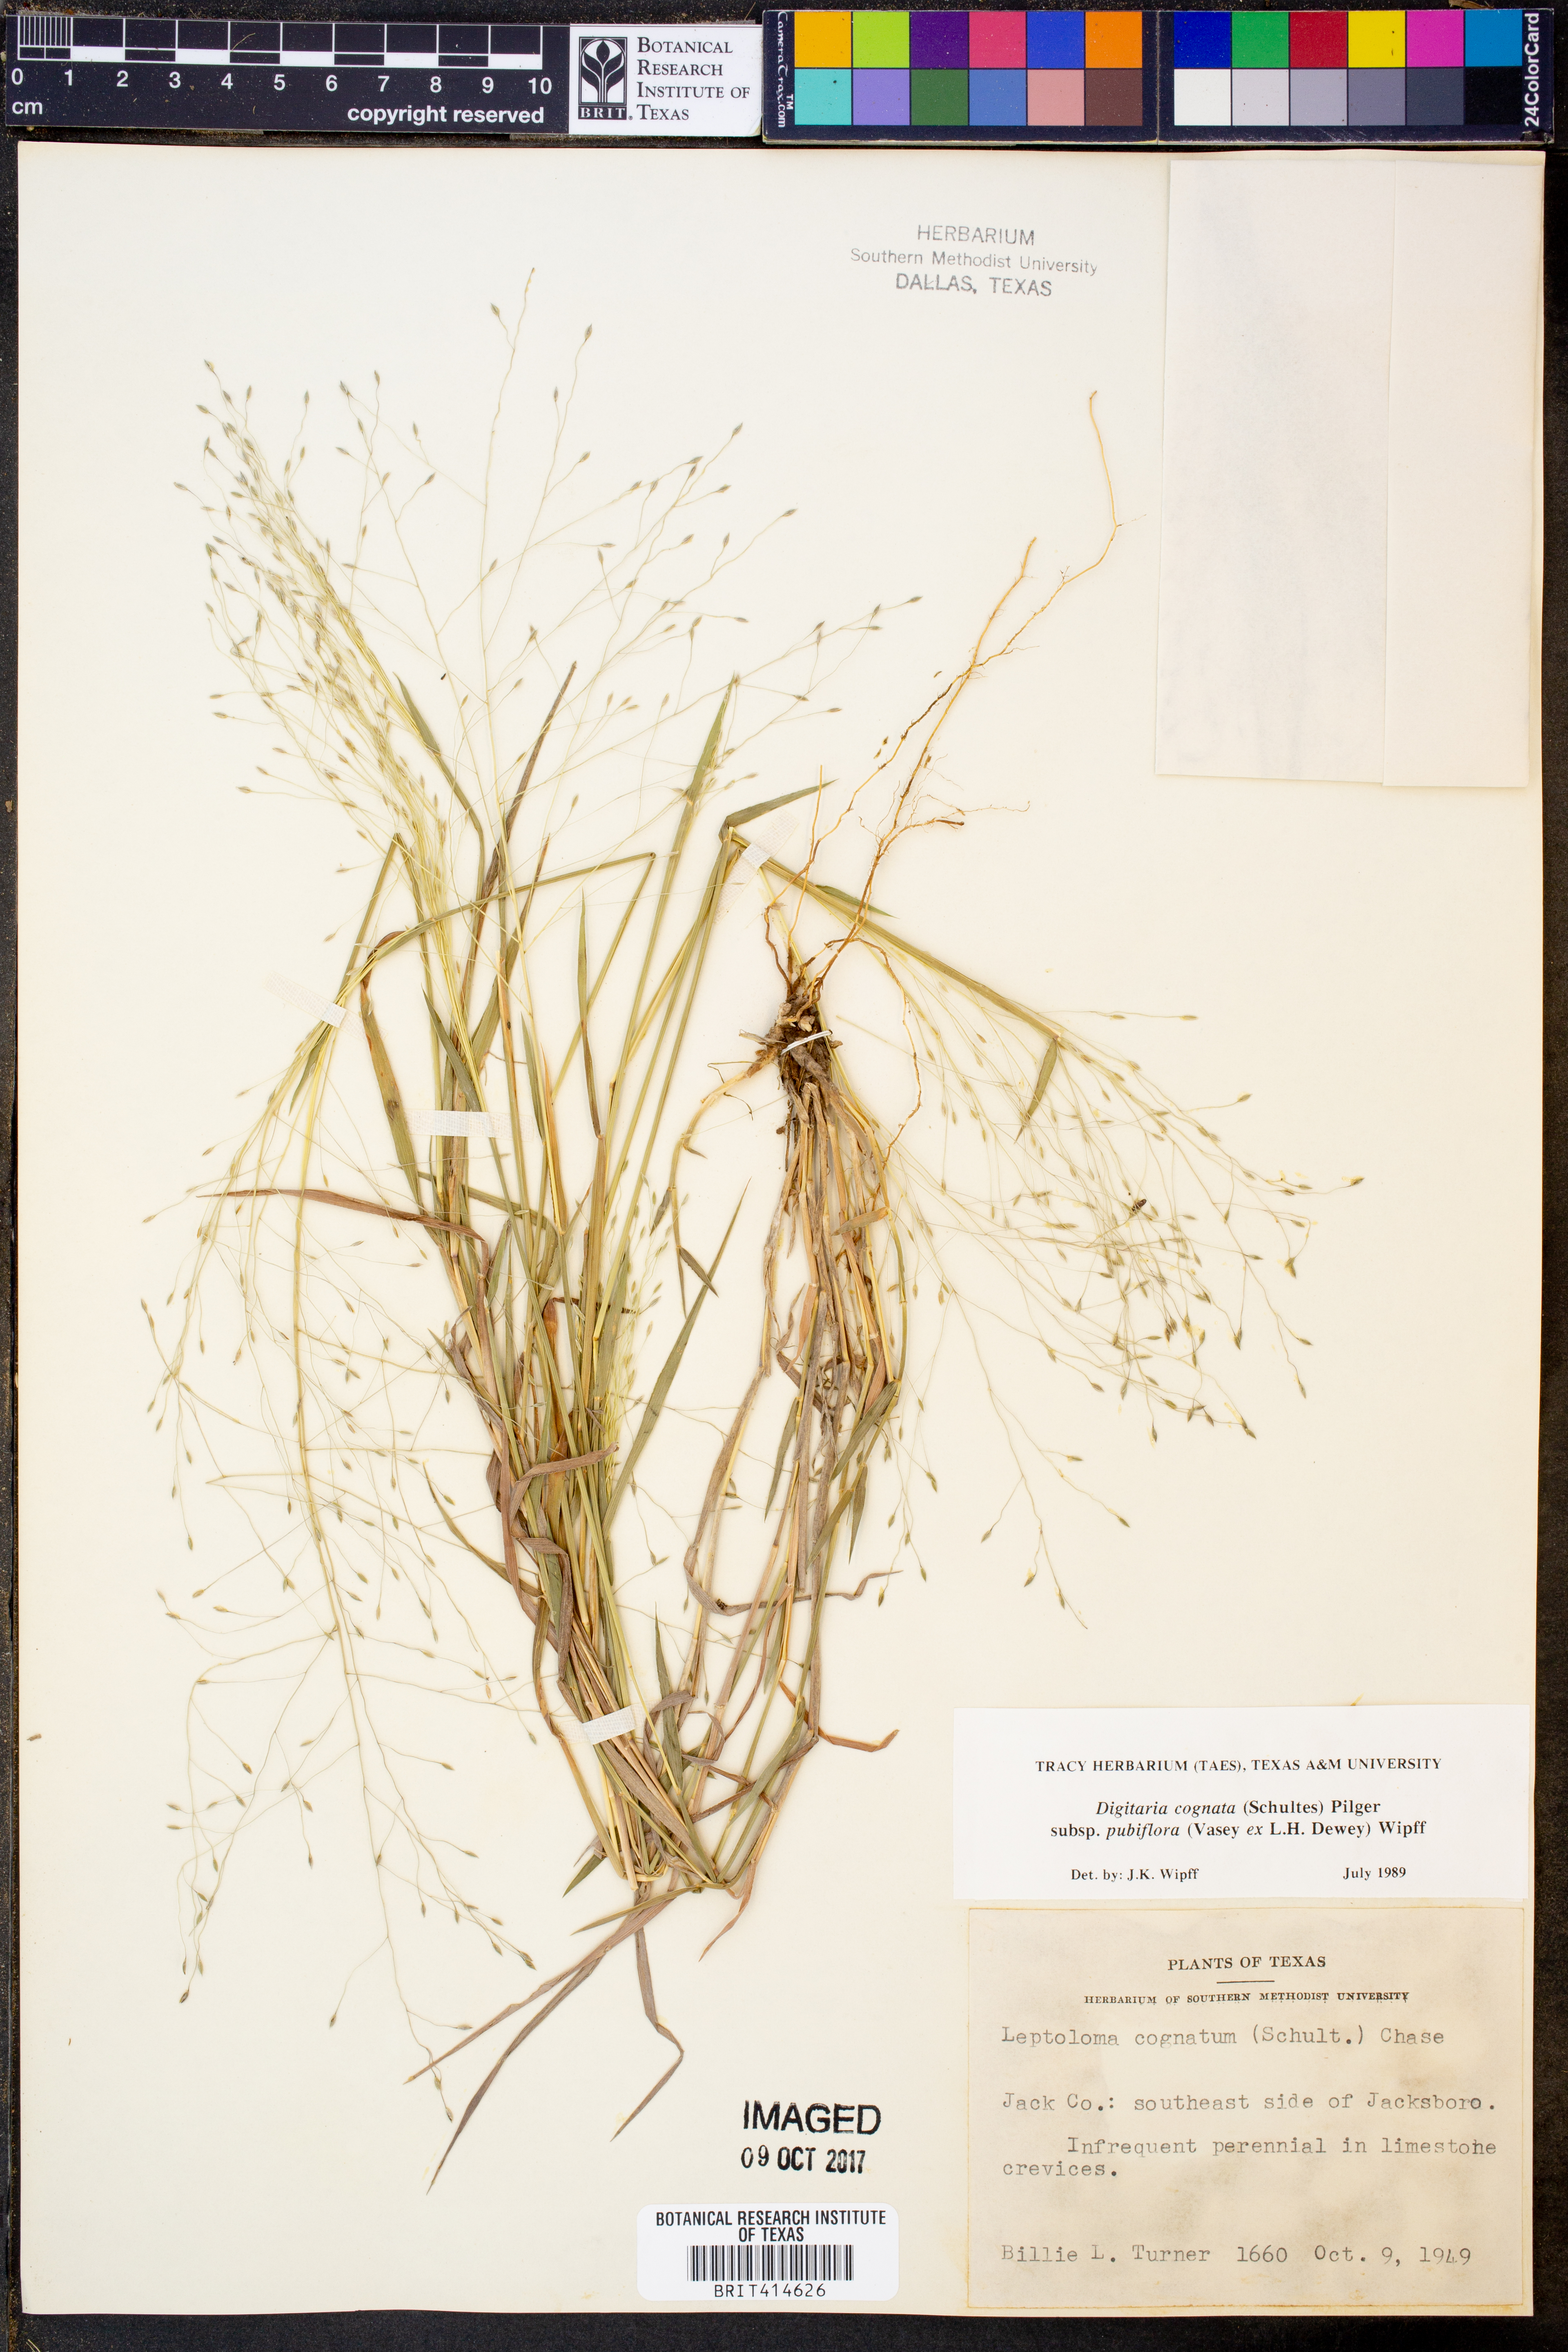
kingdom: Plantae
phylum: Tracheophyta
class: Liliopsida
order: Poales
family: Poaceae
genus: Digitaria
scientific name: Digitaria cognata
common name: Fall witchgrass
